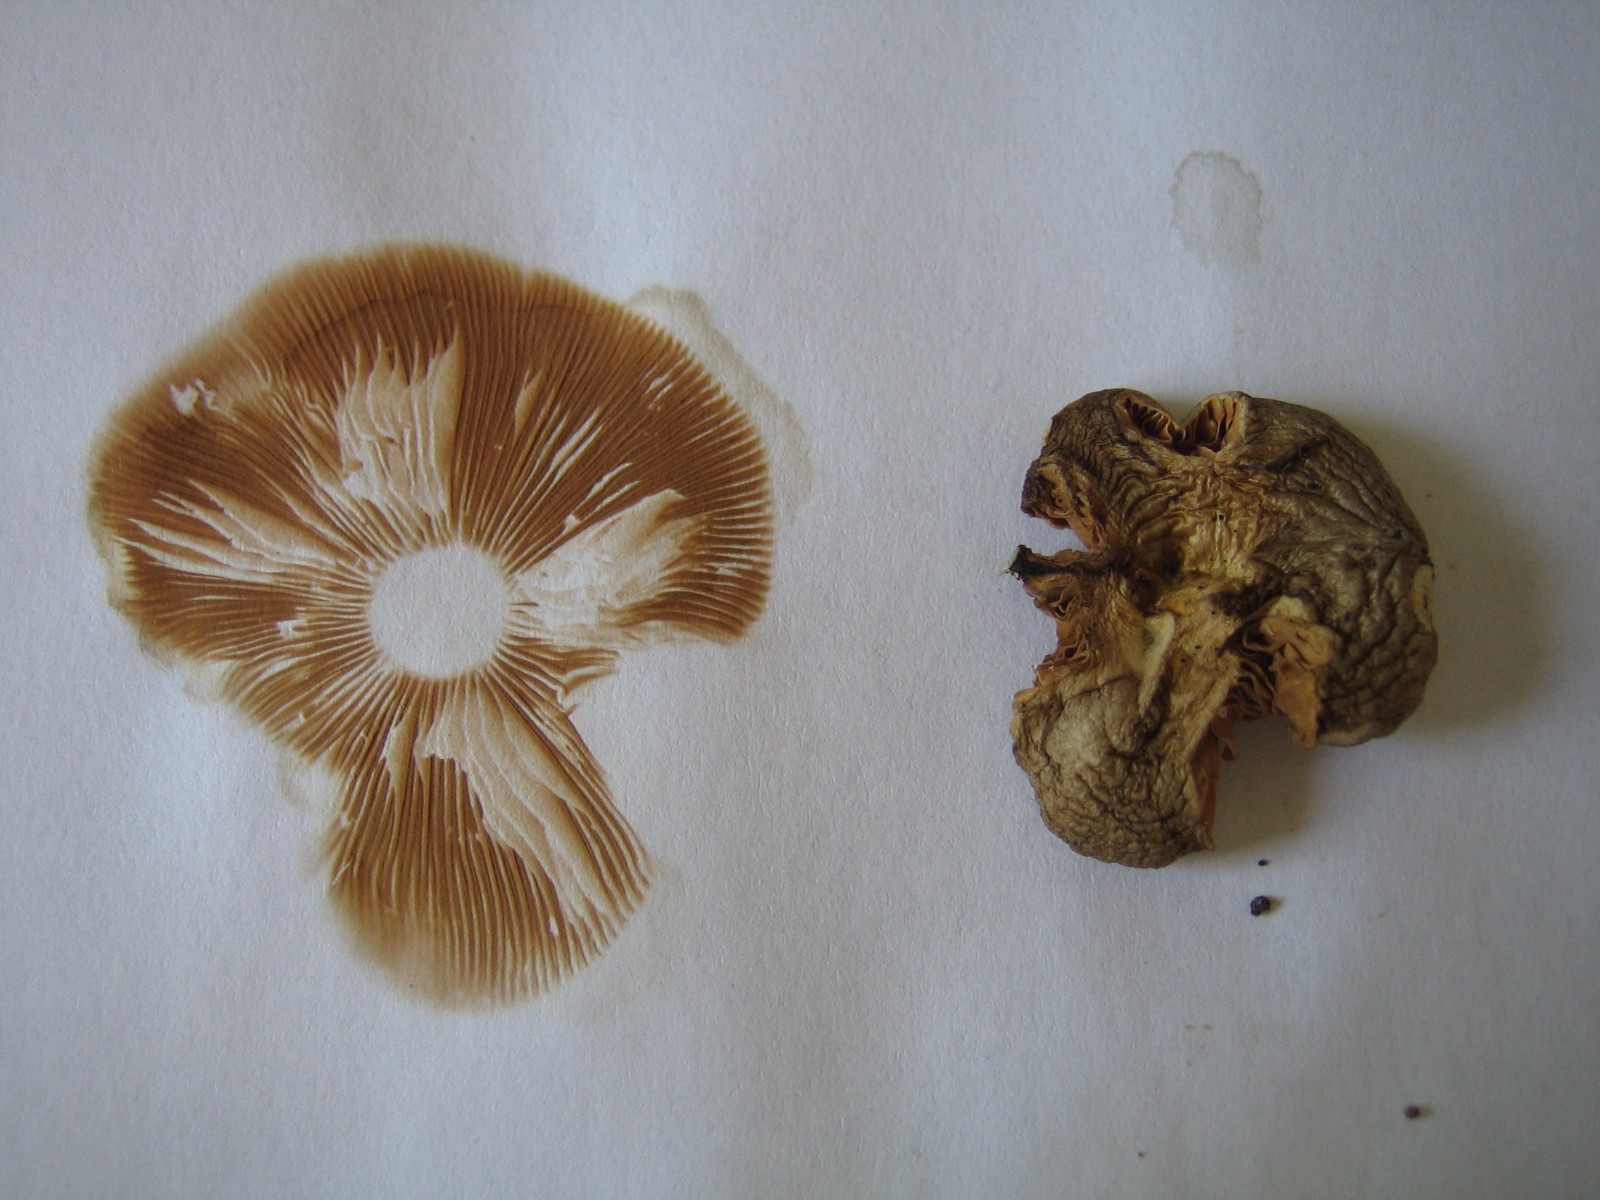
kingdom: Fungi
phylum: Basidiomycota
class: Agaricomycetes
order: Agaricales
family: Pluteaceae
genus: Pluteus
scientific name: Pluteus
